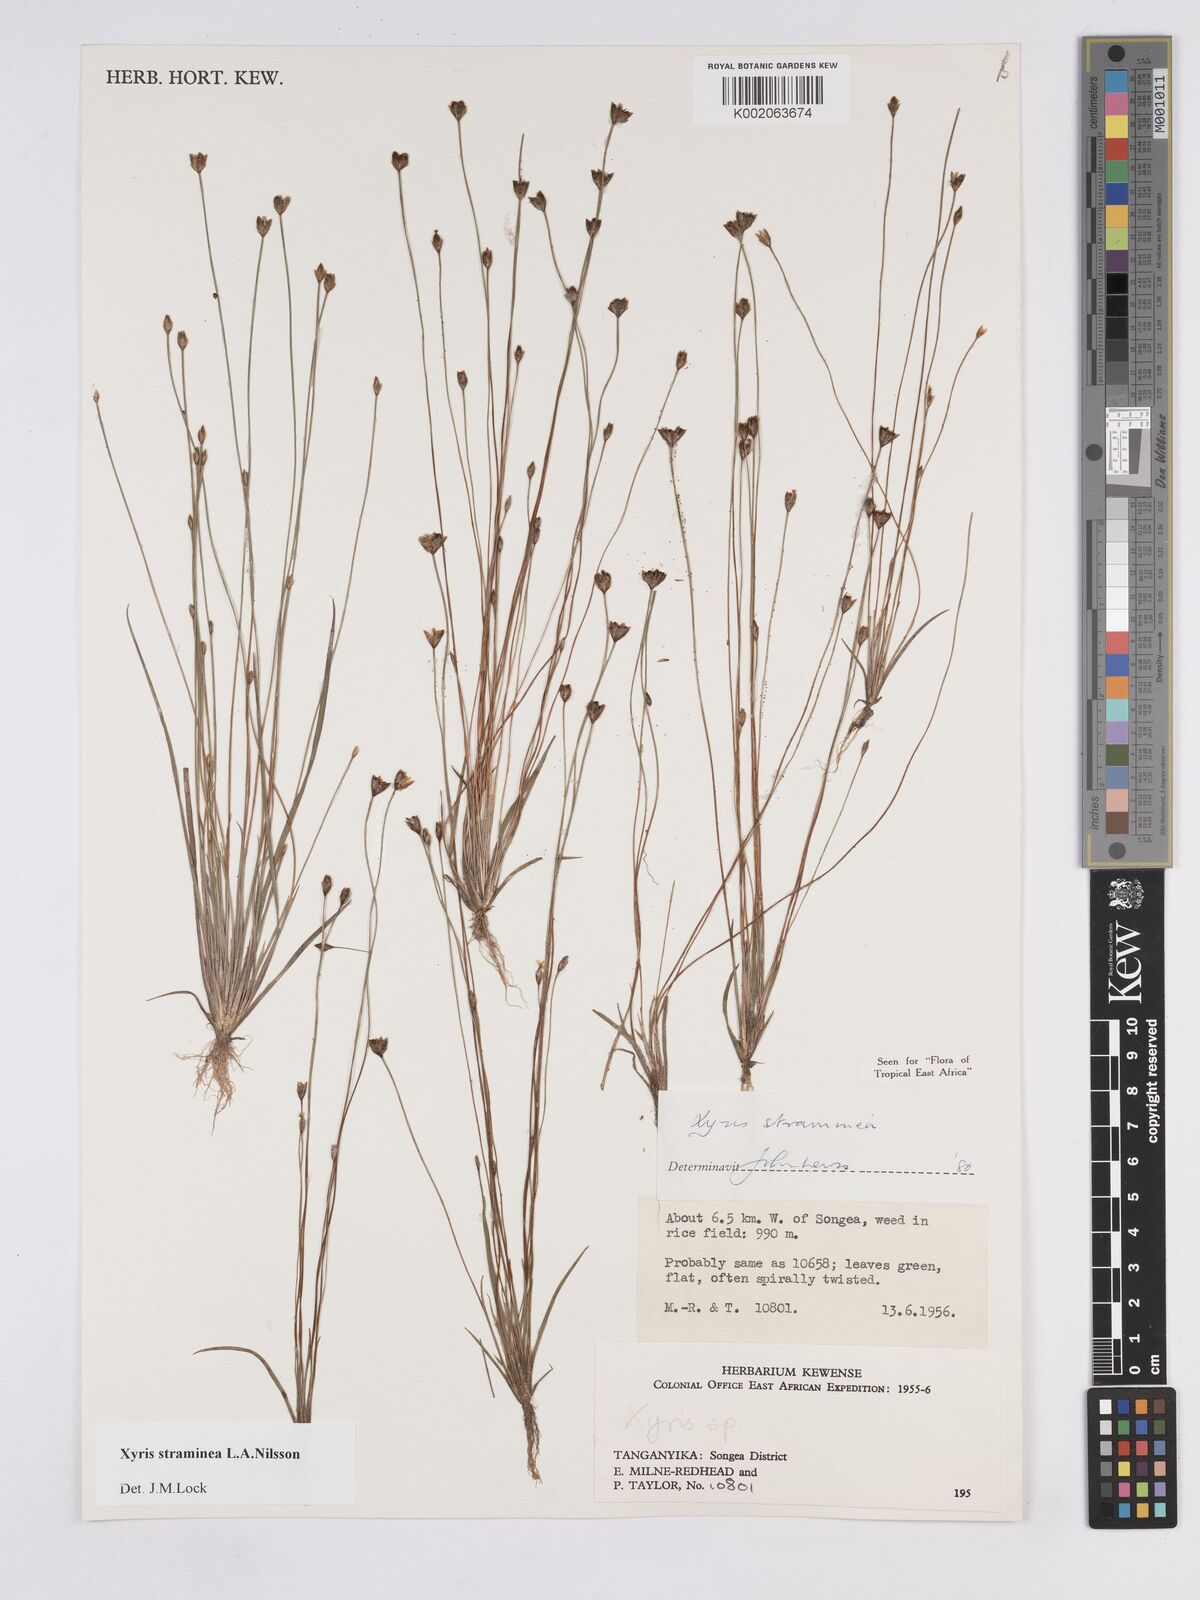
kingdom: Plantae
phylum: Tracheophyta
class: Liliopsida
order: Poales
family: Xyridaceae
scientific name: Xyridaceae
